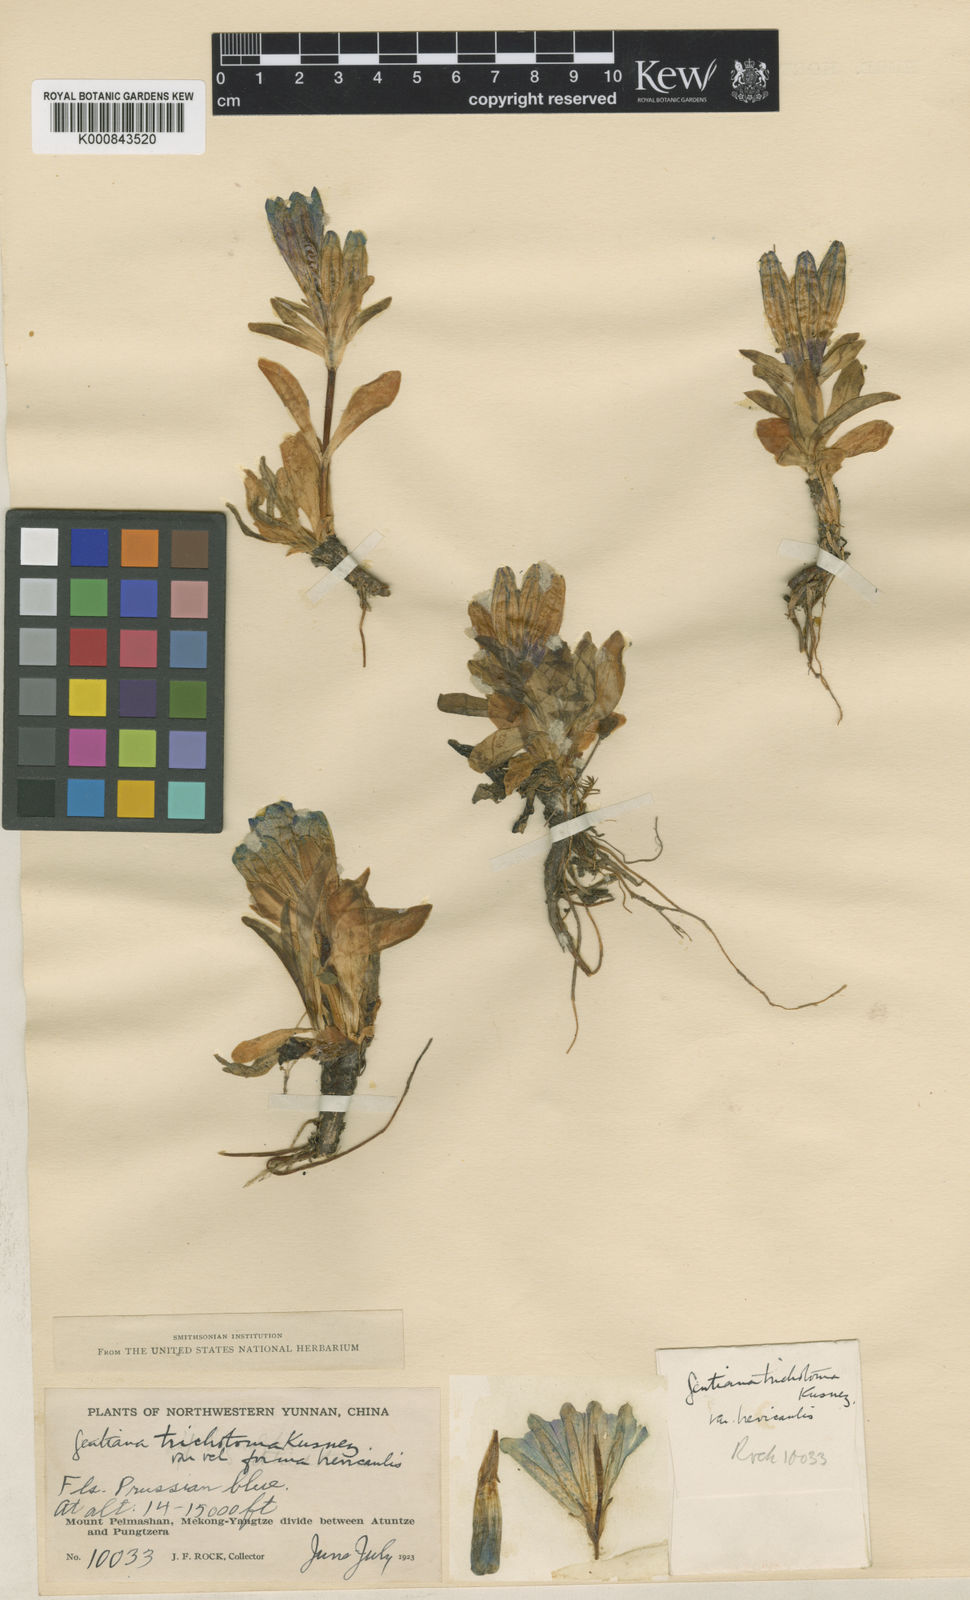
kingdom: Plantae
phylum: Tracheophyta
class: Magnoliopsida
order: Gentianales
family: Gentianaceae
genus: Gentiana
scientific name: Gentiana
